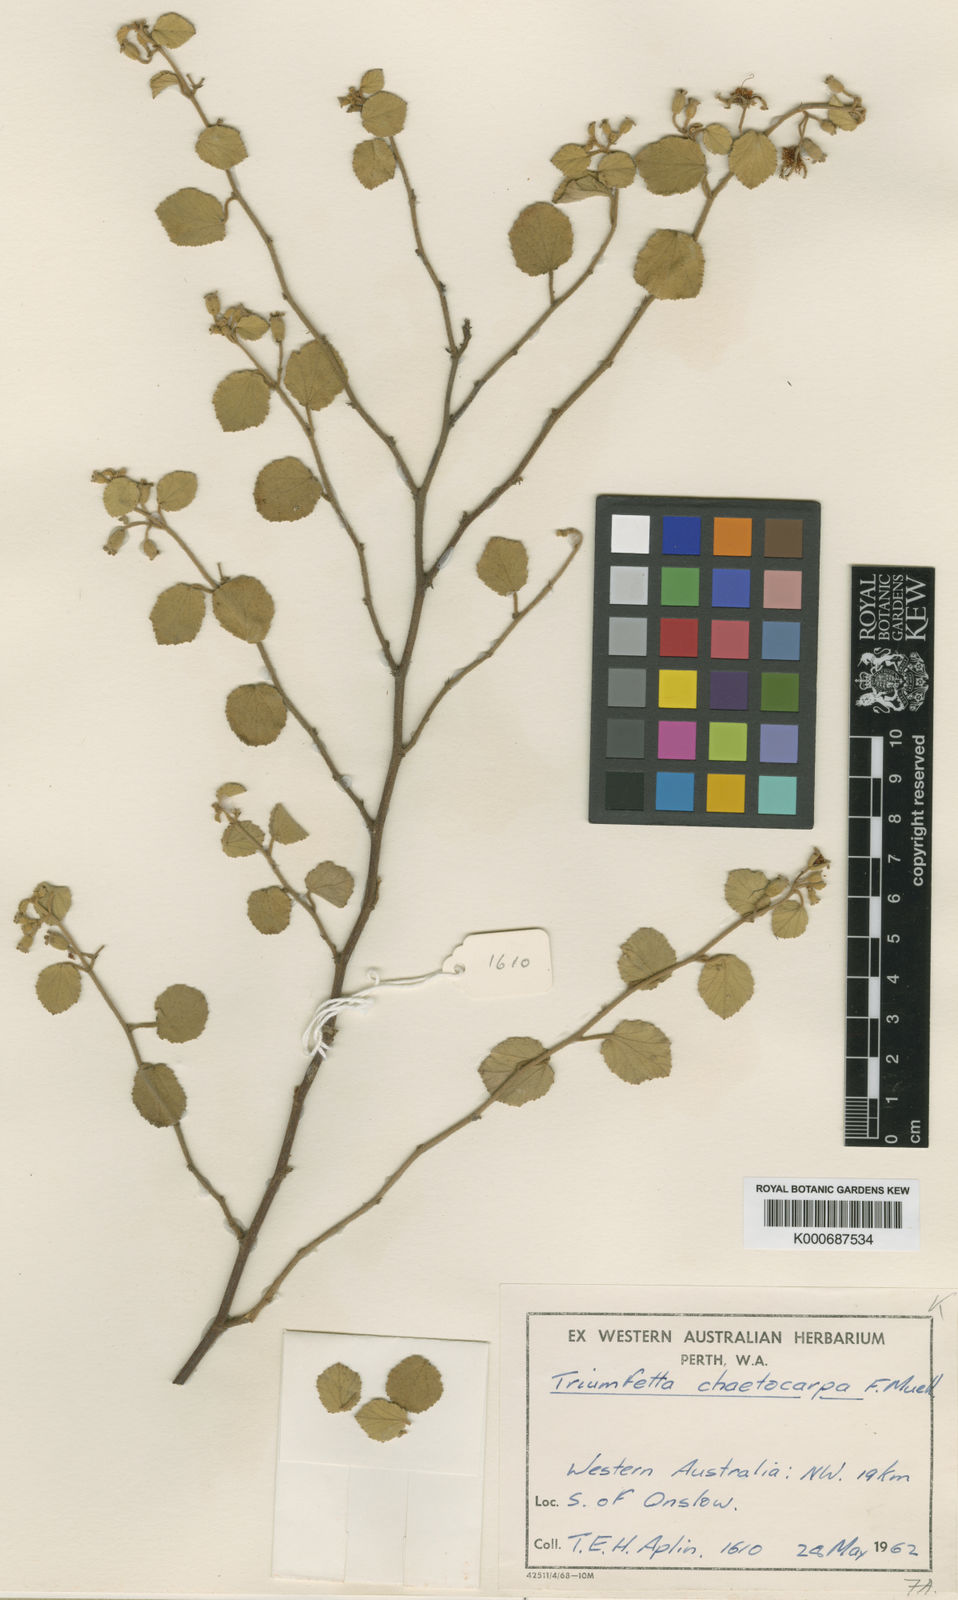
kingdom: Plantae
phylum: Tracheophyta
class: Magnoliopsida
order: Malvales
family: Malvaceae
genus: Triumfetta
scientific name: Triumfetta chaetocarpa
